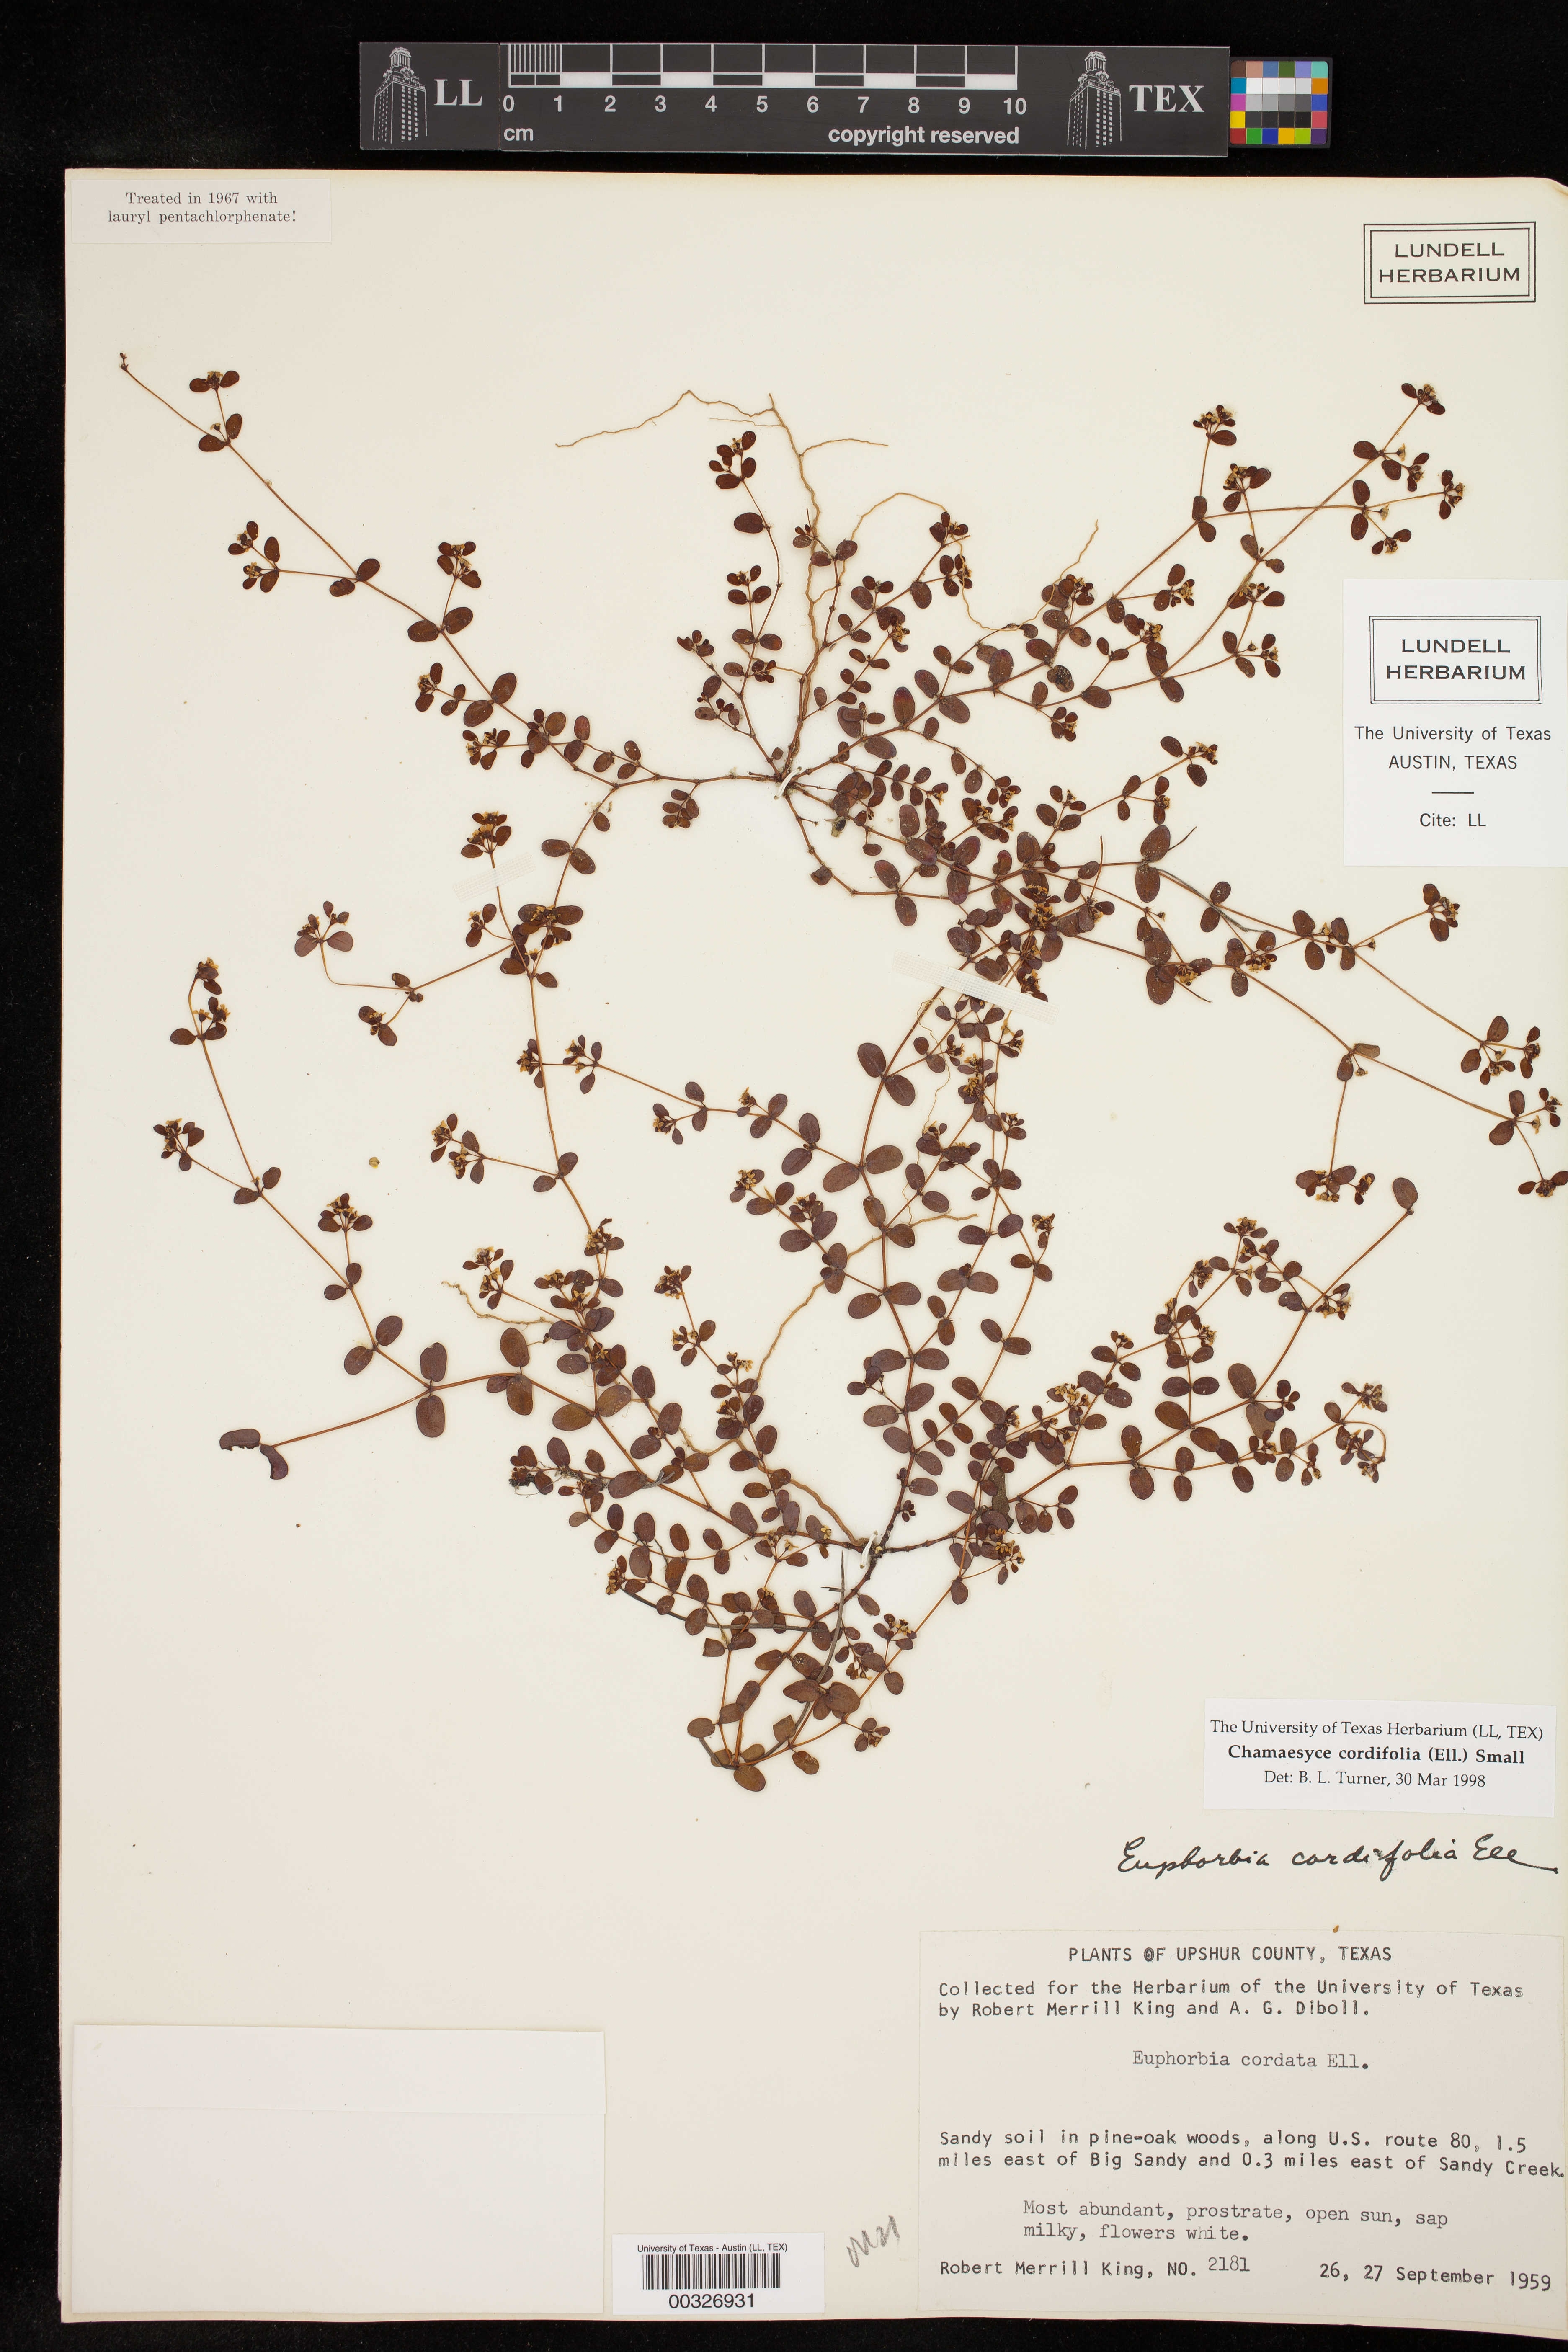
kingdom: Plantae
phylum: Tracheophyta
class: Magnoliopsida
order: Malpighiales
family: Euphorbiaceae
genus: Euphorbia
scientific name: Euphorbia cordifolia
